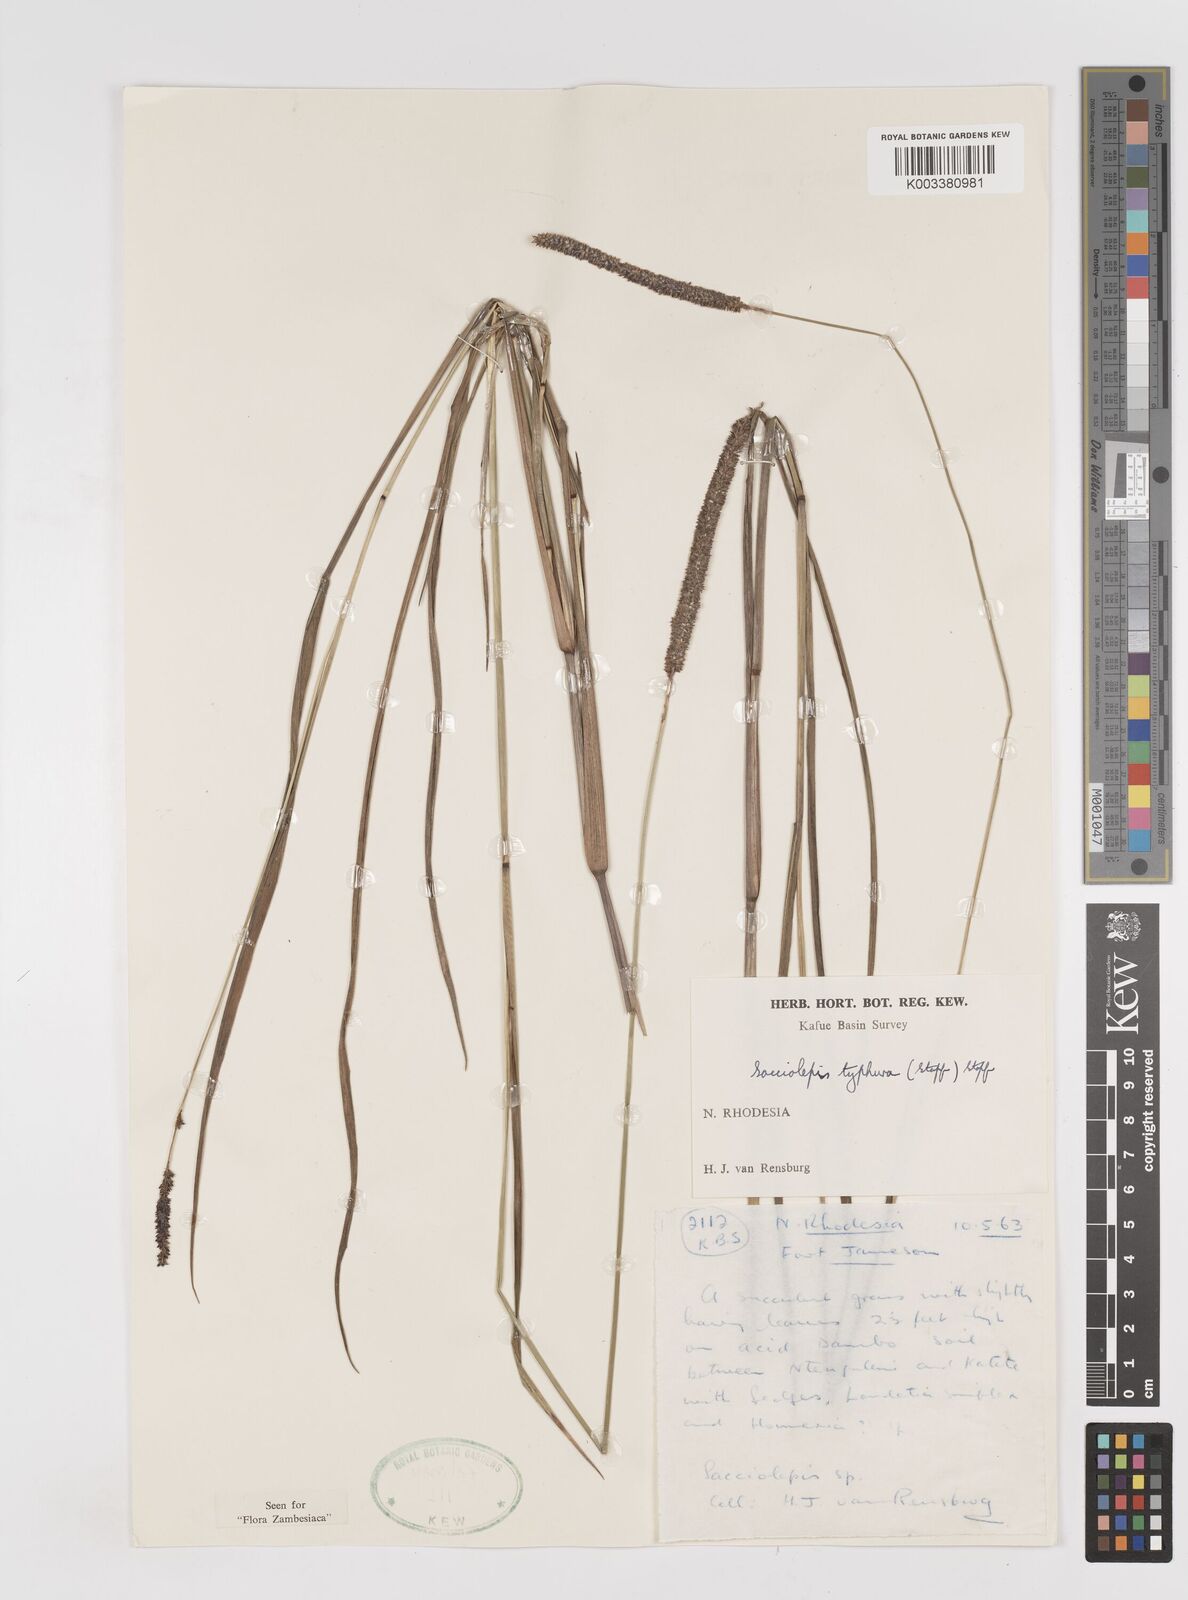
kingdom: Plantae
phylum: Tracheophyta
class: Liliopsida
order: Poales
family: Poaceae
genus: Sacciolepis
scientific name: Sacciolepis typhura
